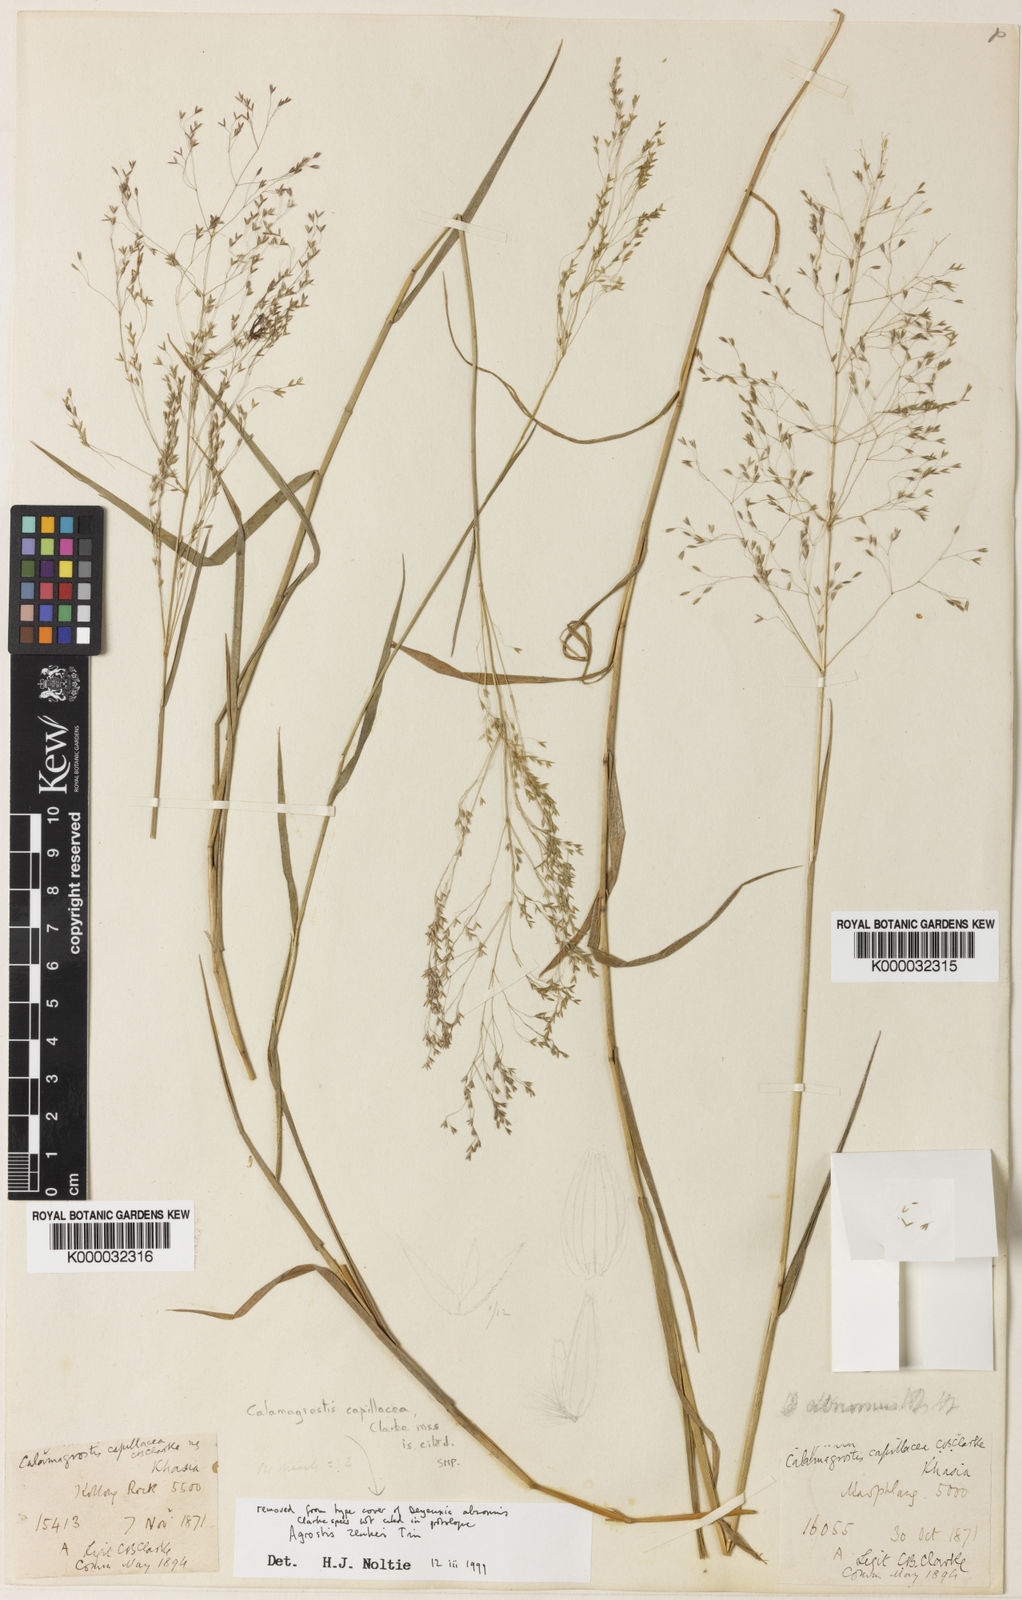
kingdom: Plantae
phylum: Tracheophyta
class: Liliopsida
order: Poales
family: Poaceae
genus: Calamagrostis
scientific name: Calamagrostis abnormis
